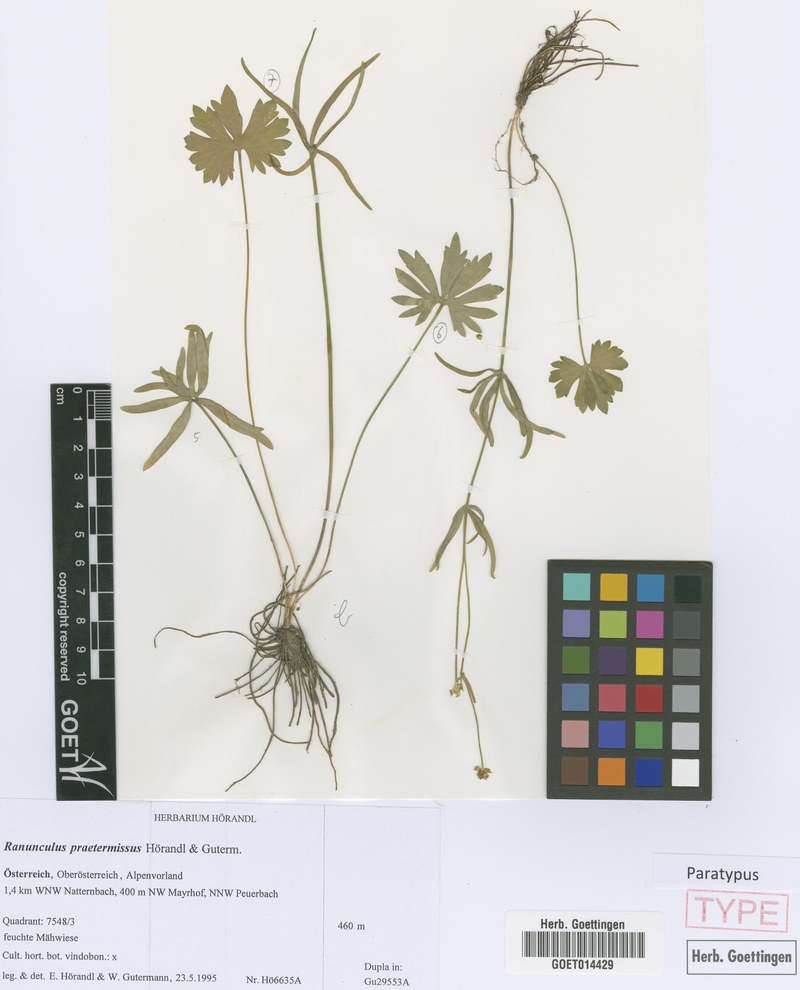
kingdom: Plantae
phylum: Tracheophyta
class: Magnoliopsida
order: Ranunculales
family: Ranunculaceae
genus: Ranunculus
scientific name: Ranunculus praetermissus
